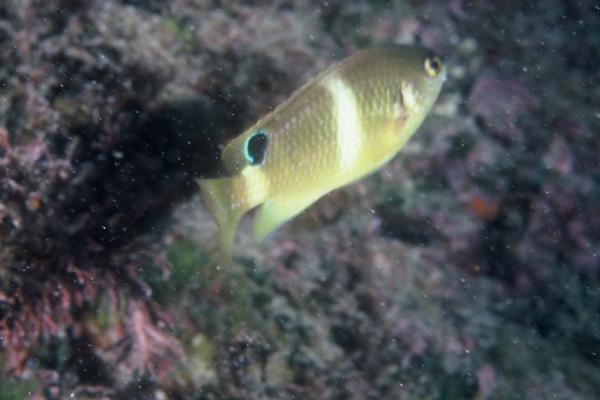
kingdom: Animalia
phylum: Chordata
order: Perciformes
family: Pomacentridae
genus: Chrysiptera
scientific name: Chrysiptera brownriggii
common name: Surge demoiselle
